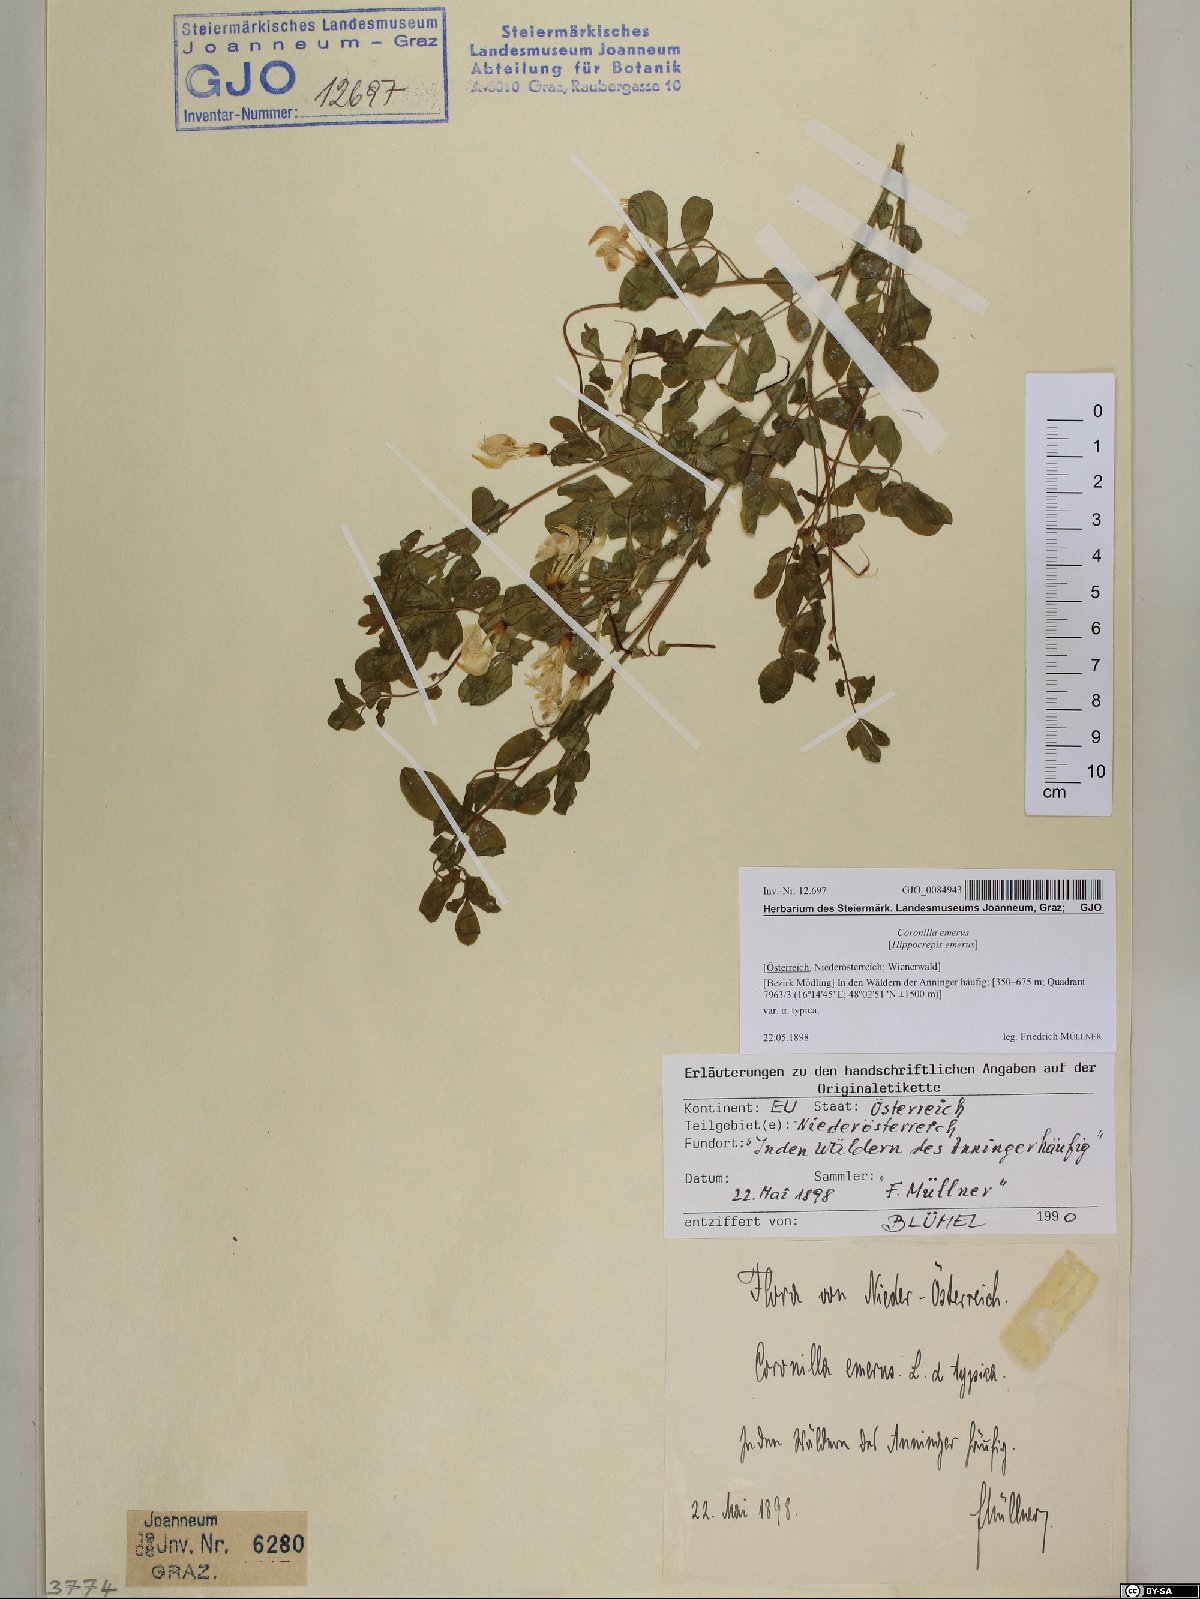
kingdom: Plantae
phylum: Tracheophyta
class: Magnoliopsida
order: Fabales
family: Fabaceae
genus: Hippocrepis
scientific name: Hippocrepis emerus
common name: Scorpion senna
